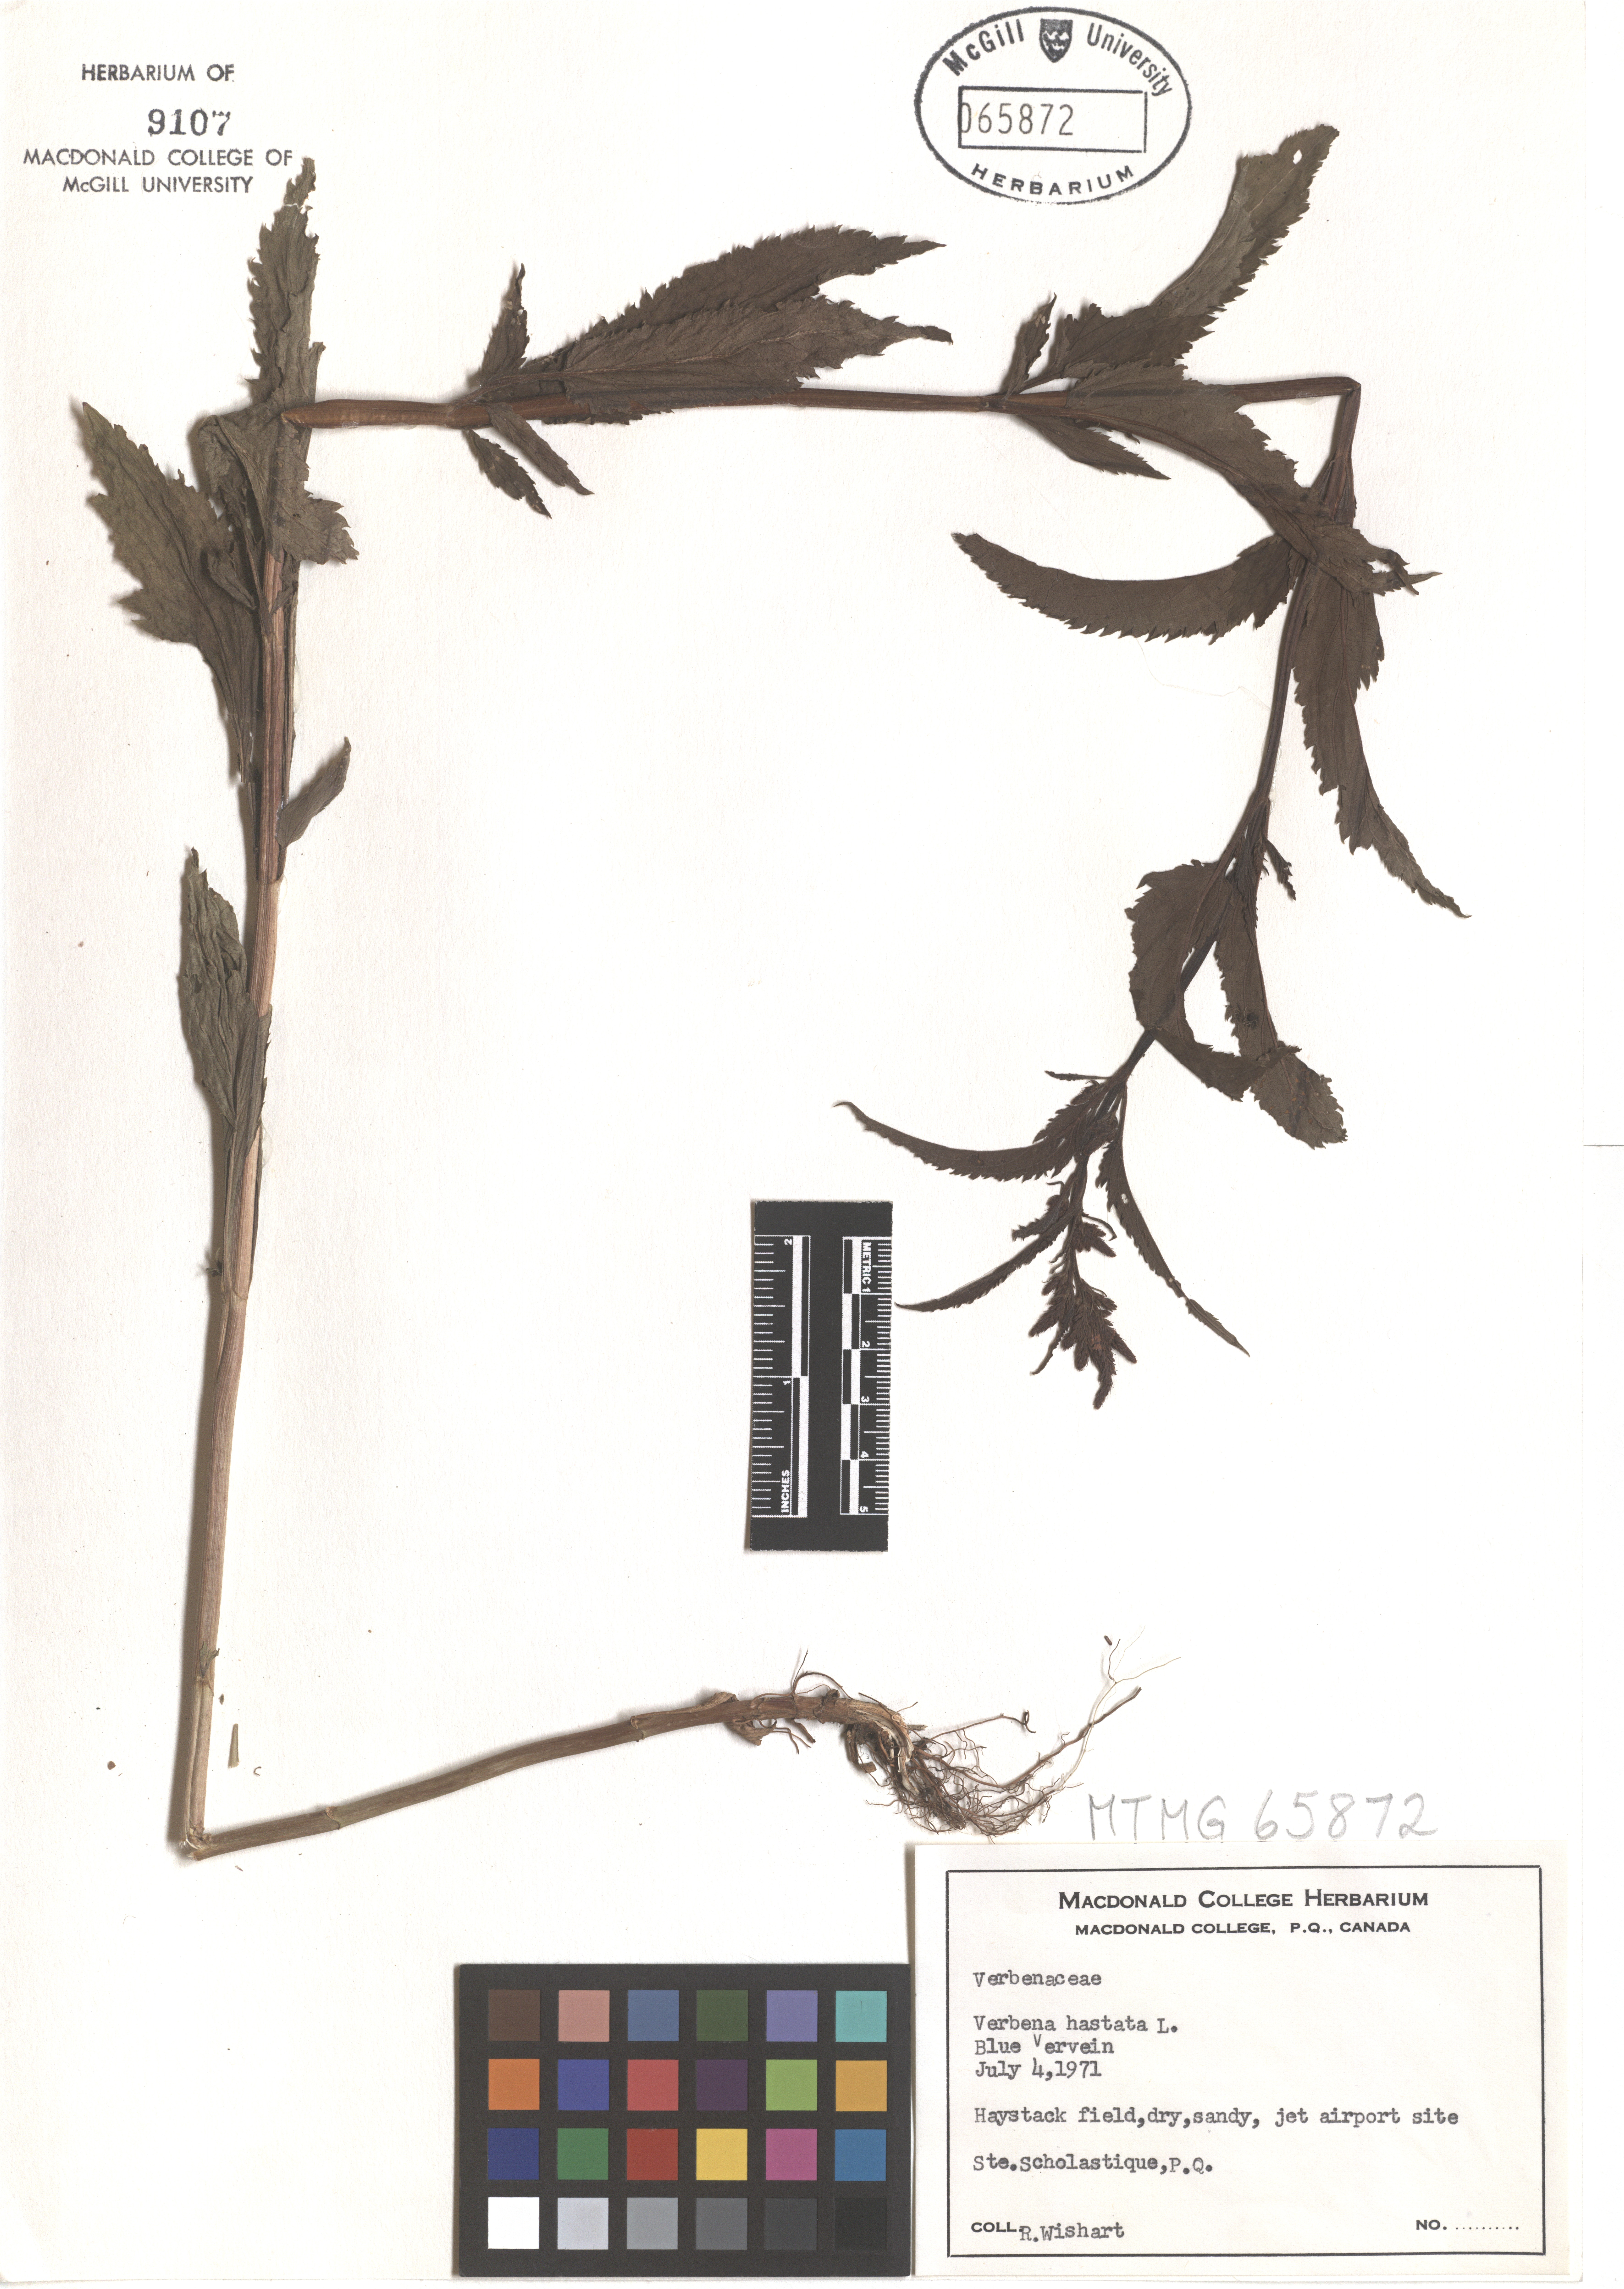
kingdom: Plantae
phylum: Tracheophyta
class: Magnoliopsida
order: Lamiales
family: Verbenaceae
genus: Verbena
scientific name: Verbena hastata
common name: American blue vervain
